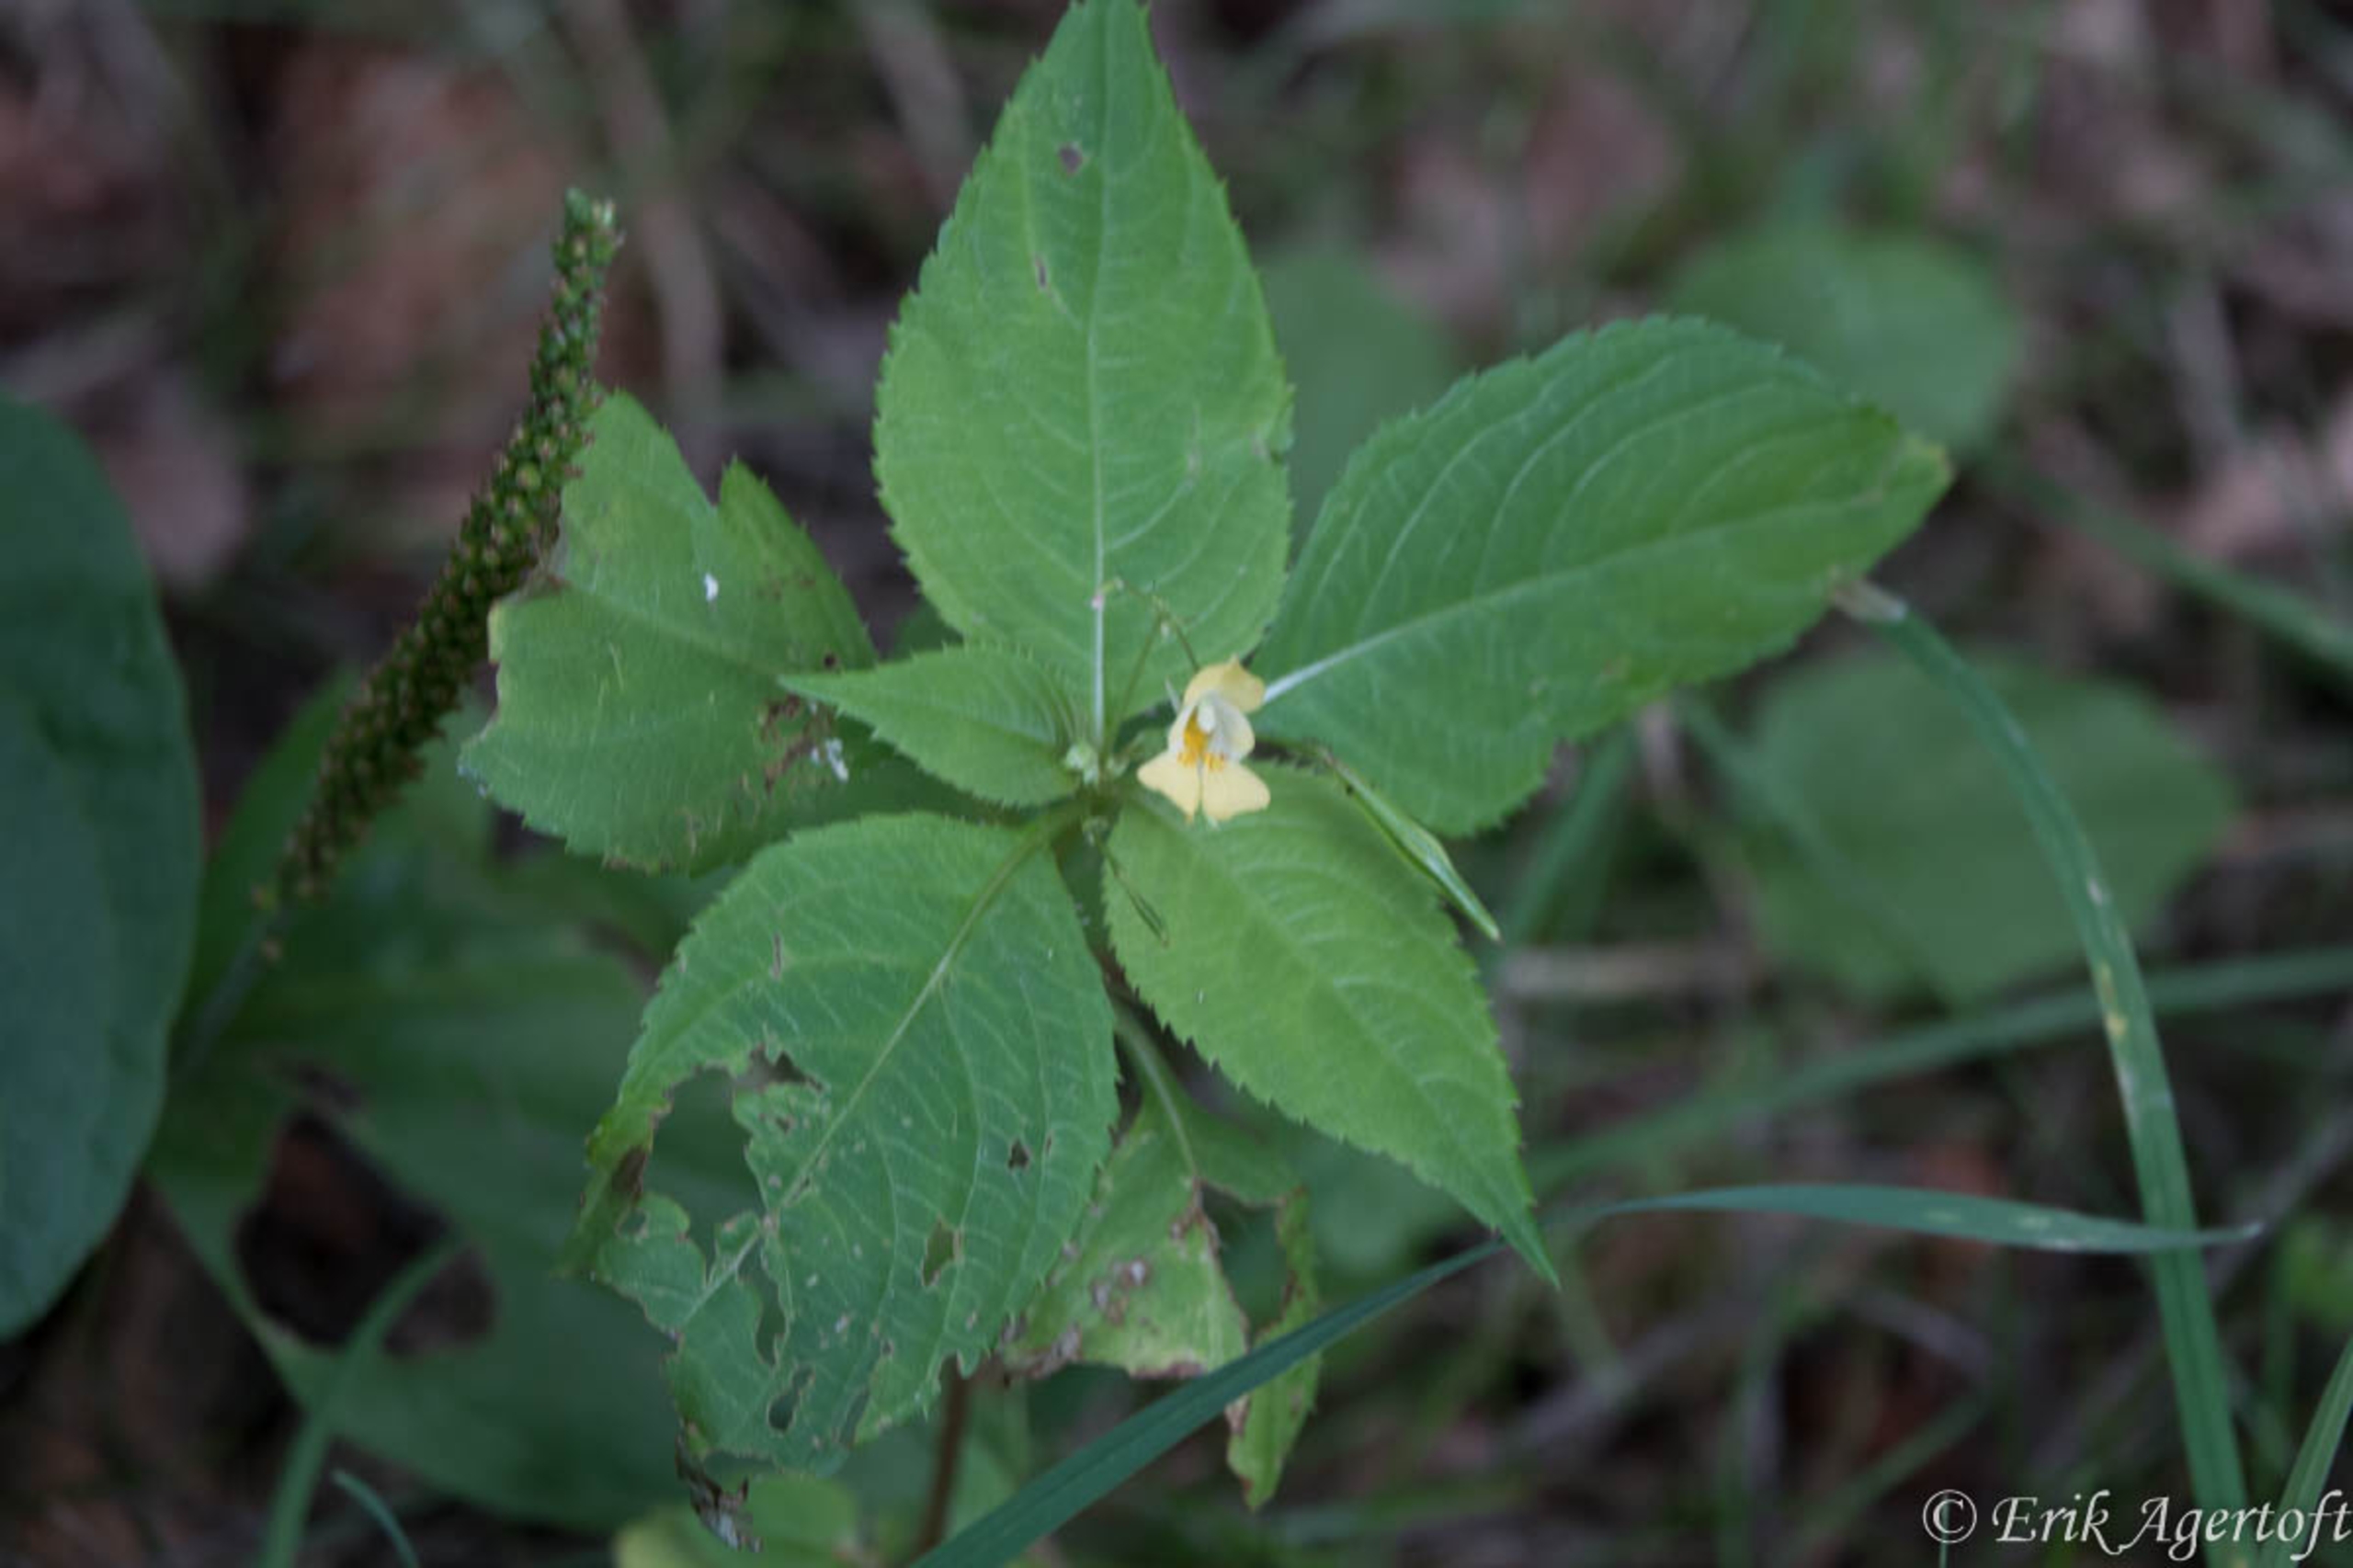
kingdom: Plantae
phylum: Tracheophyta
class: Magnoliopsida
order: Ericales
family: Balsaminaceae
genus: Impatiens
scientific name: Impatiens parviflora
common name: Småblomstret balsamin
